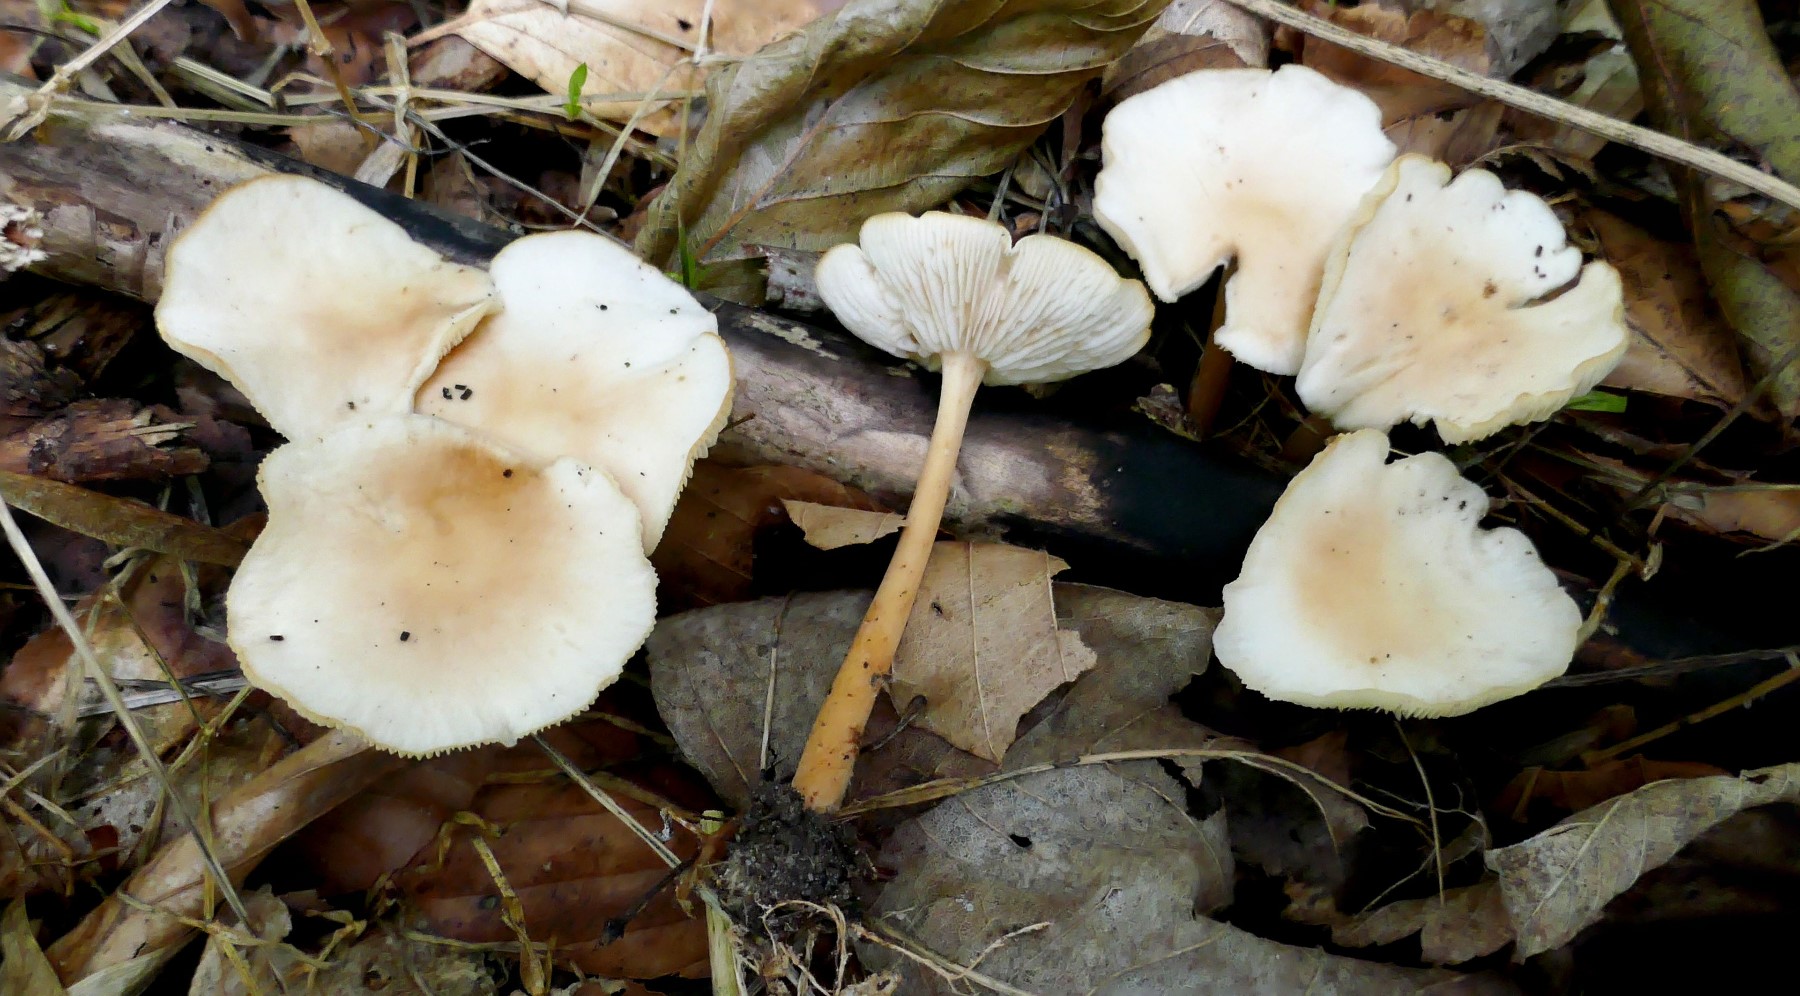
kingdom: Fungi
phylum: Basidiomycota
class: Agaricomycetes
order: Agaricales
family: Omphalotaceae
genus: Gymnopus
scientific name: Gymnopus dryophilus
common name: løv-fladhat
